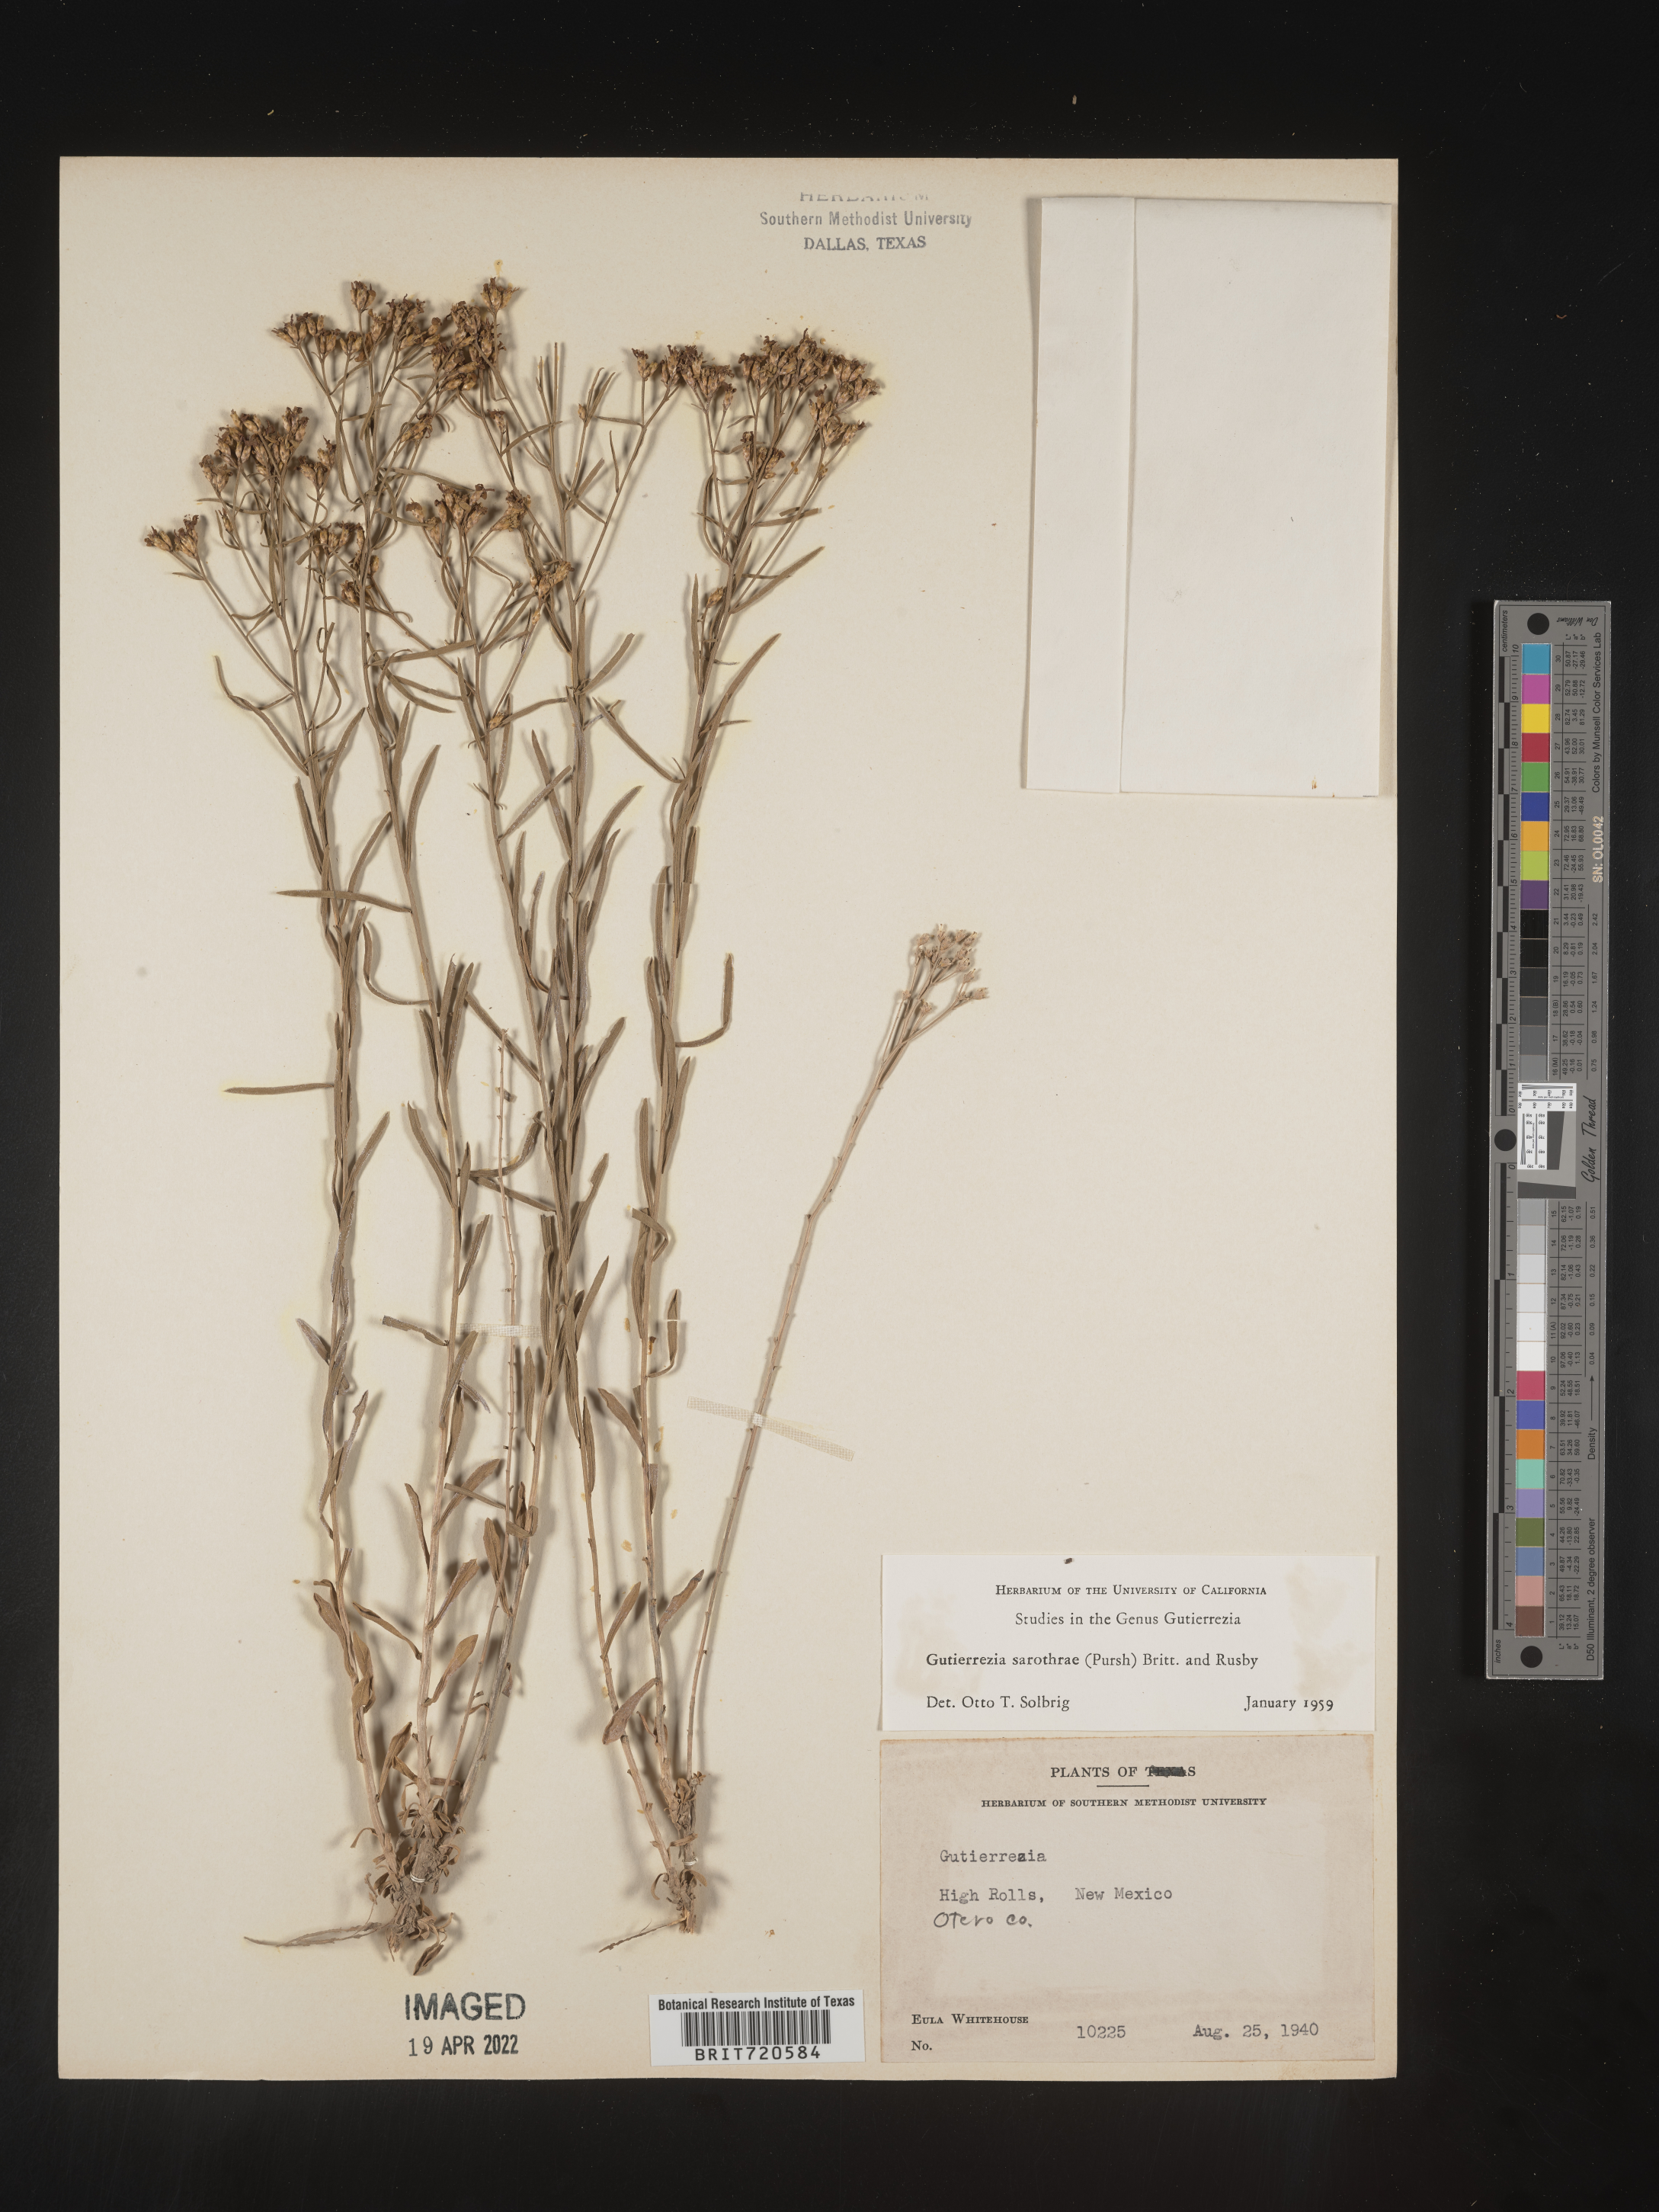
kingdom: Plantae
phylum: Tracheophyta
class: Magnoliopsida
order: Asterales
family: Asteraceae
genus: Gutierrezia
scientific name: Gutierrezia sarothrae
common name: Broom snakeweed
